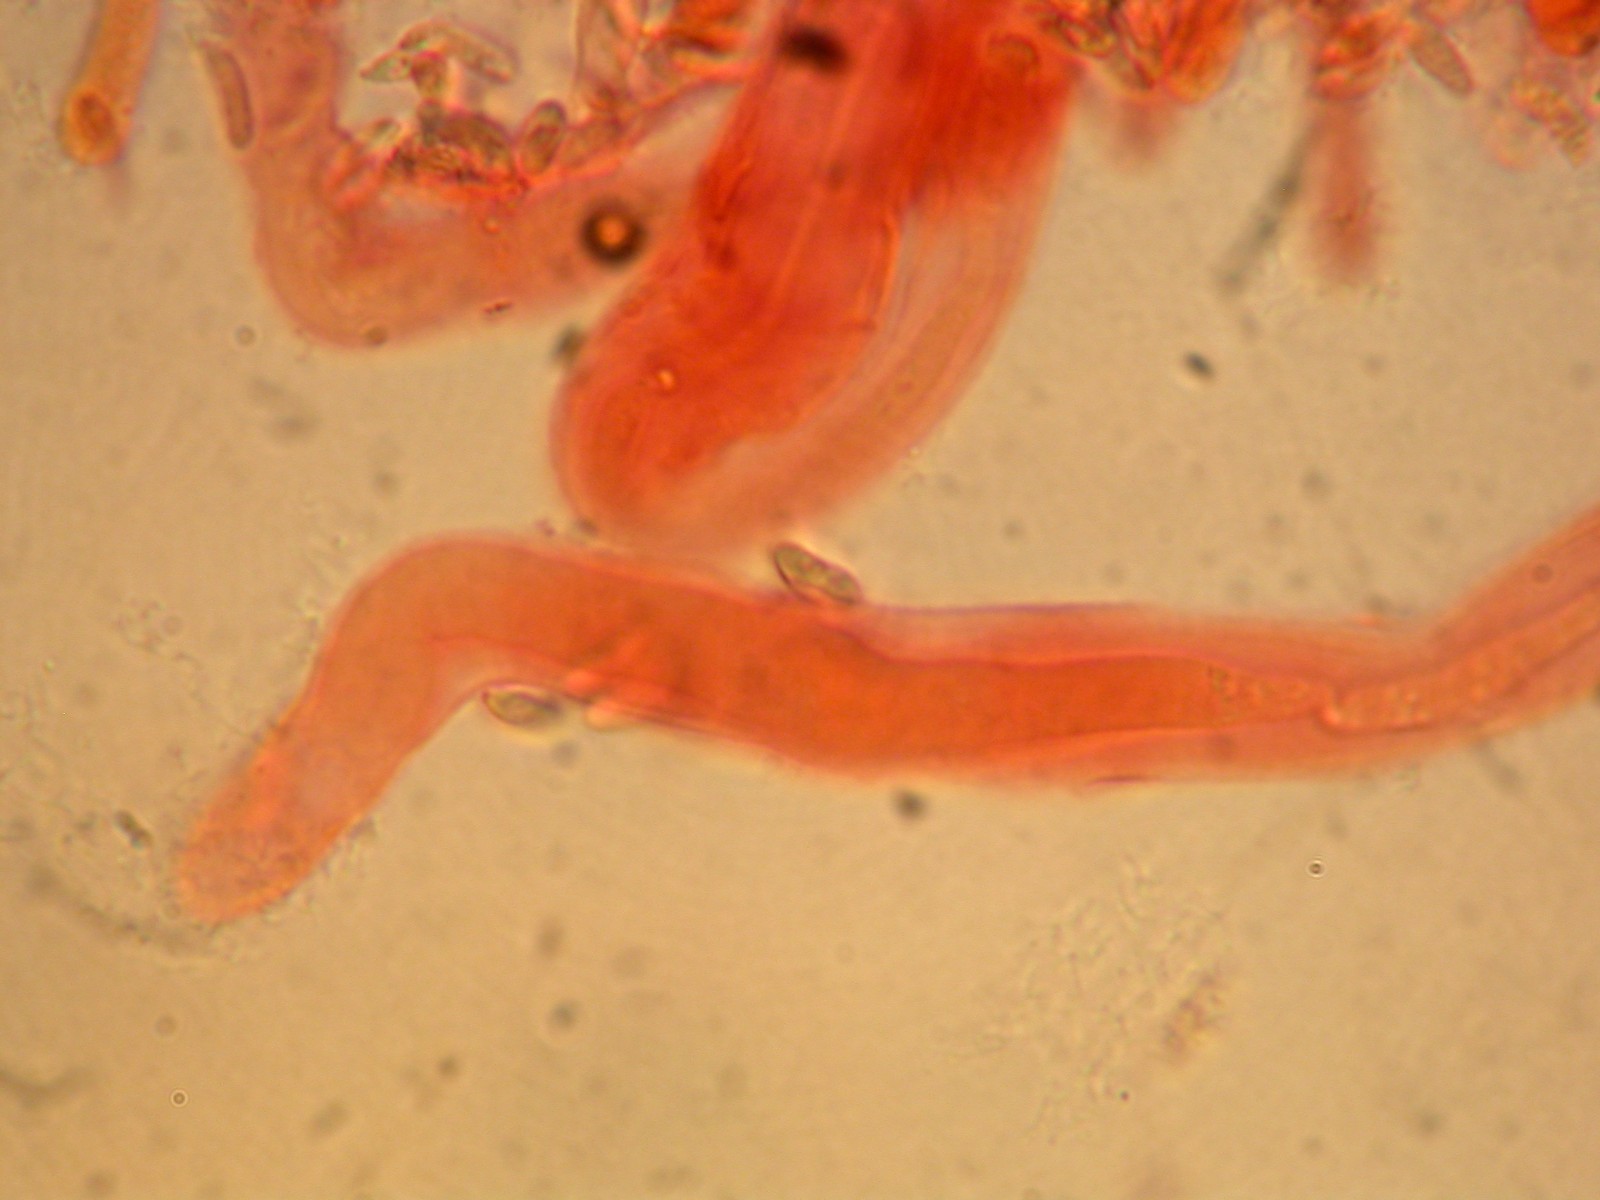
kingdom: Fungi
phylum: Basidiomycota
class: Agaricomycetes
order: Polyporales
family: Dacryobolaceae
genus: Dacryobolus
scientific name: Dacryobolus karstenii
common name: glat vulkanskorpe
